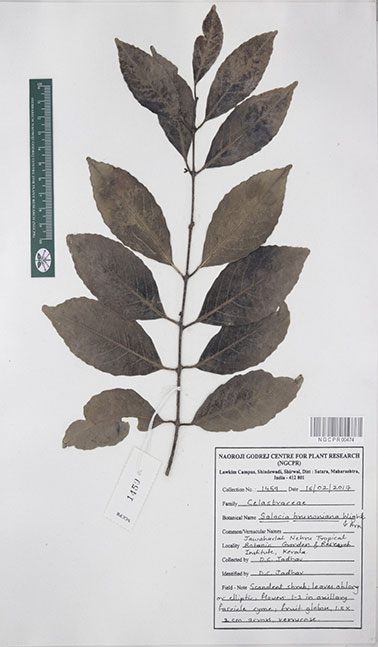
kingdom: Plantae
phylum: Tracheophyta
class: Magnoliopsida
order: Celastrales
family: Celastraceae
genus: Salacia
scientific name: Salacia brunoniana
